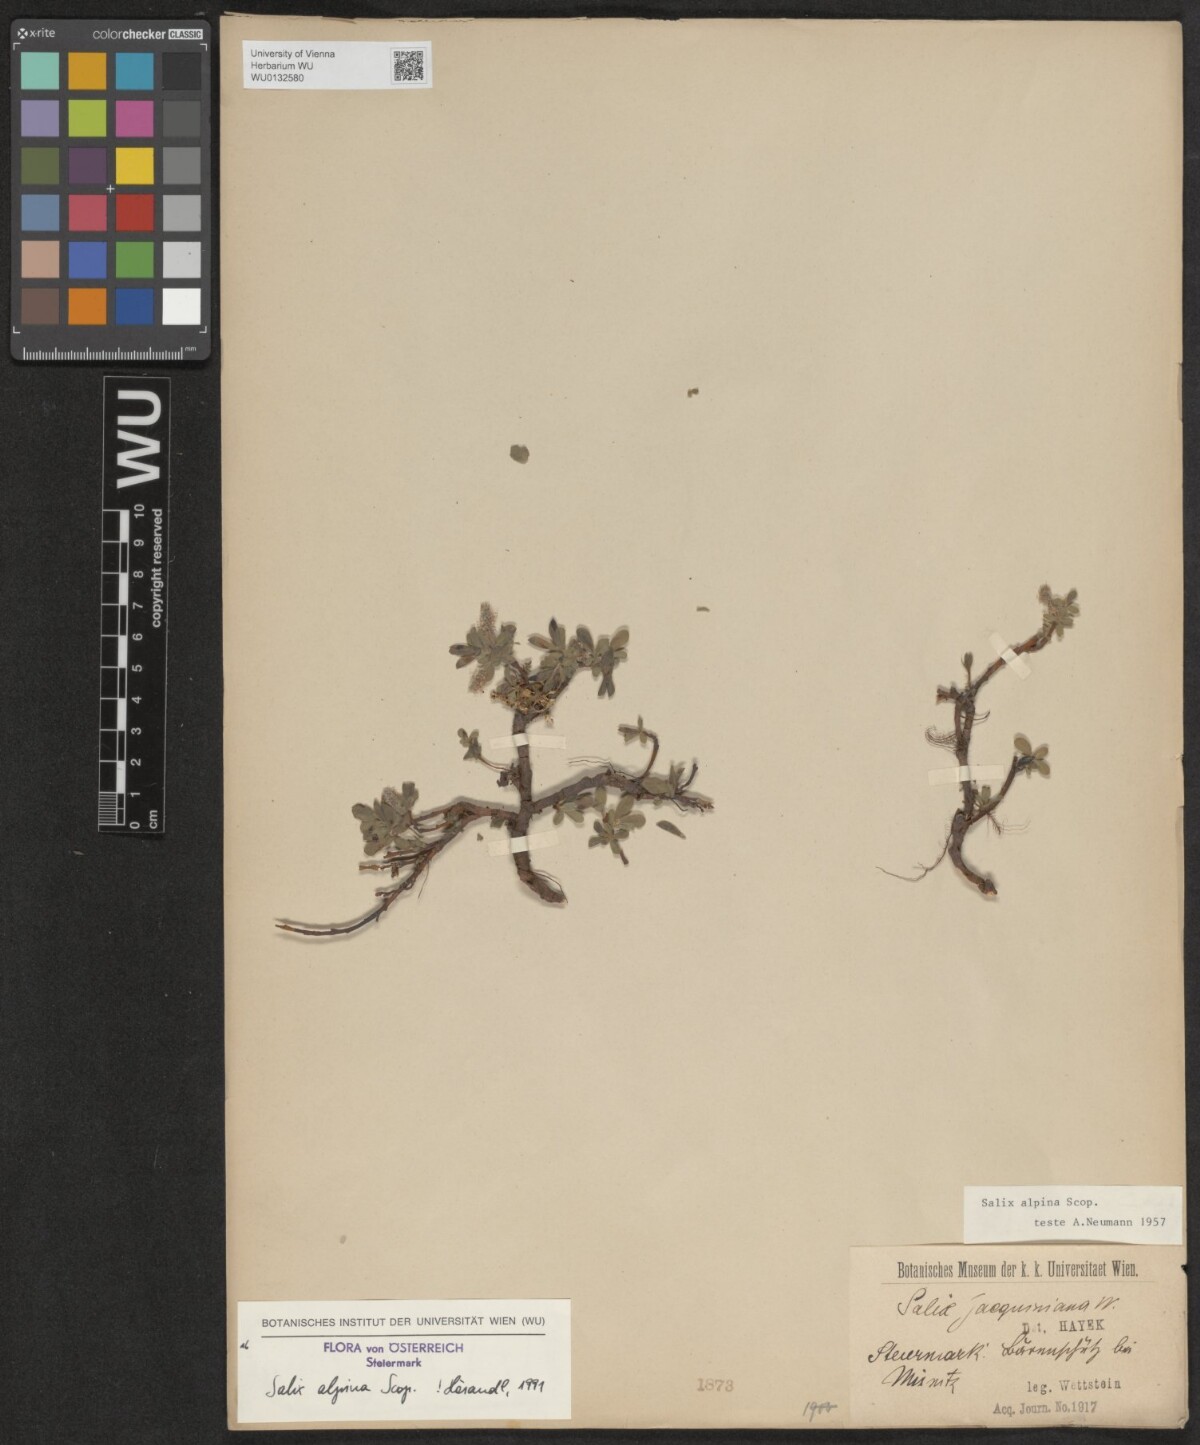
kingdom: Plantae
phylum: Tracheophyta
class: Magnoliopsida
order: Malpighiales
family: Salicaceae
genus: Salix
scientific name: Salix alpina
